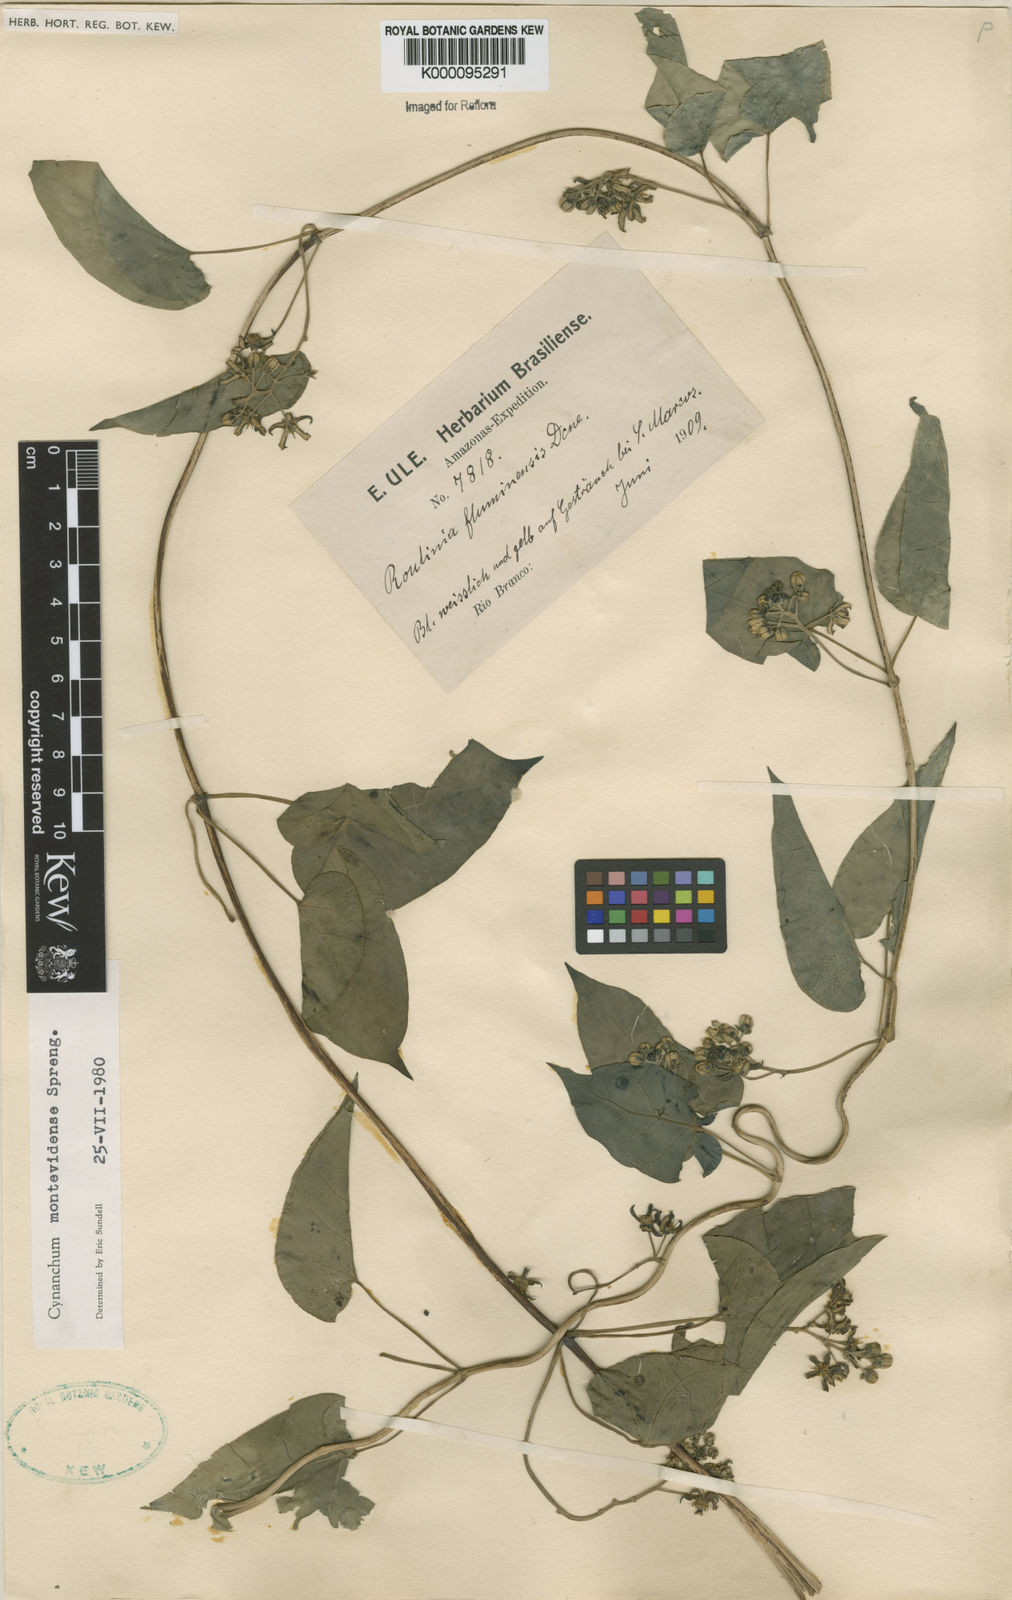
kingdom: Plantae
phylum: Tracheophyta
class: Magnoliopsida
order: Gentianales
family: Apocynaceae
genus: Cynanchum
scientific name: Cynanchum montevidense
